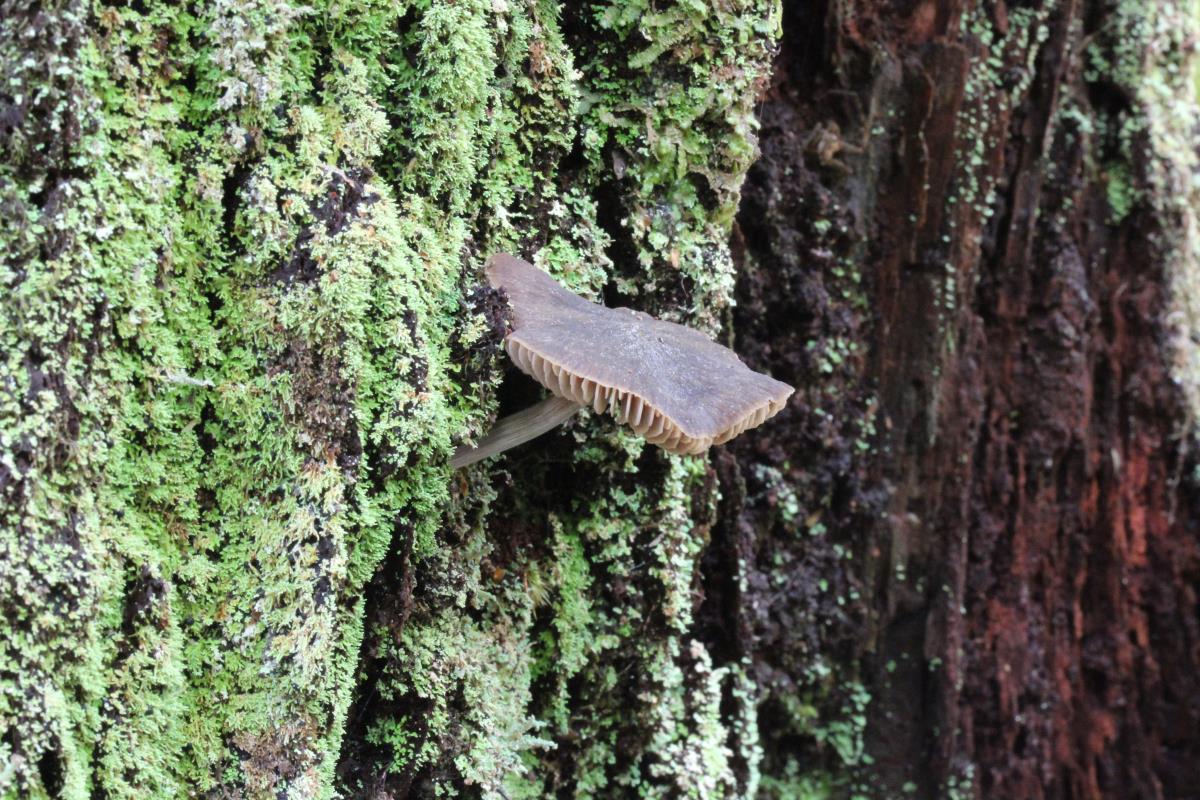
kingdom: Fungi
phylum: Basidiomycota
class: Agaricomycetes
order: Agaricales
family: Entolomataceae
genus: Entoloma
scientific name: Entoloma pluteimorphum
